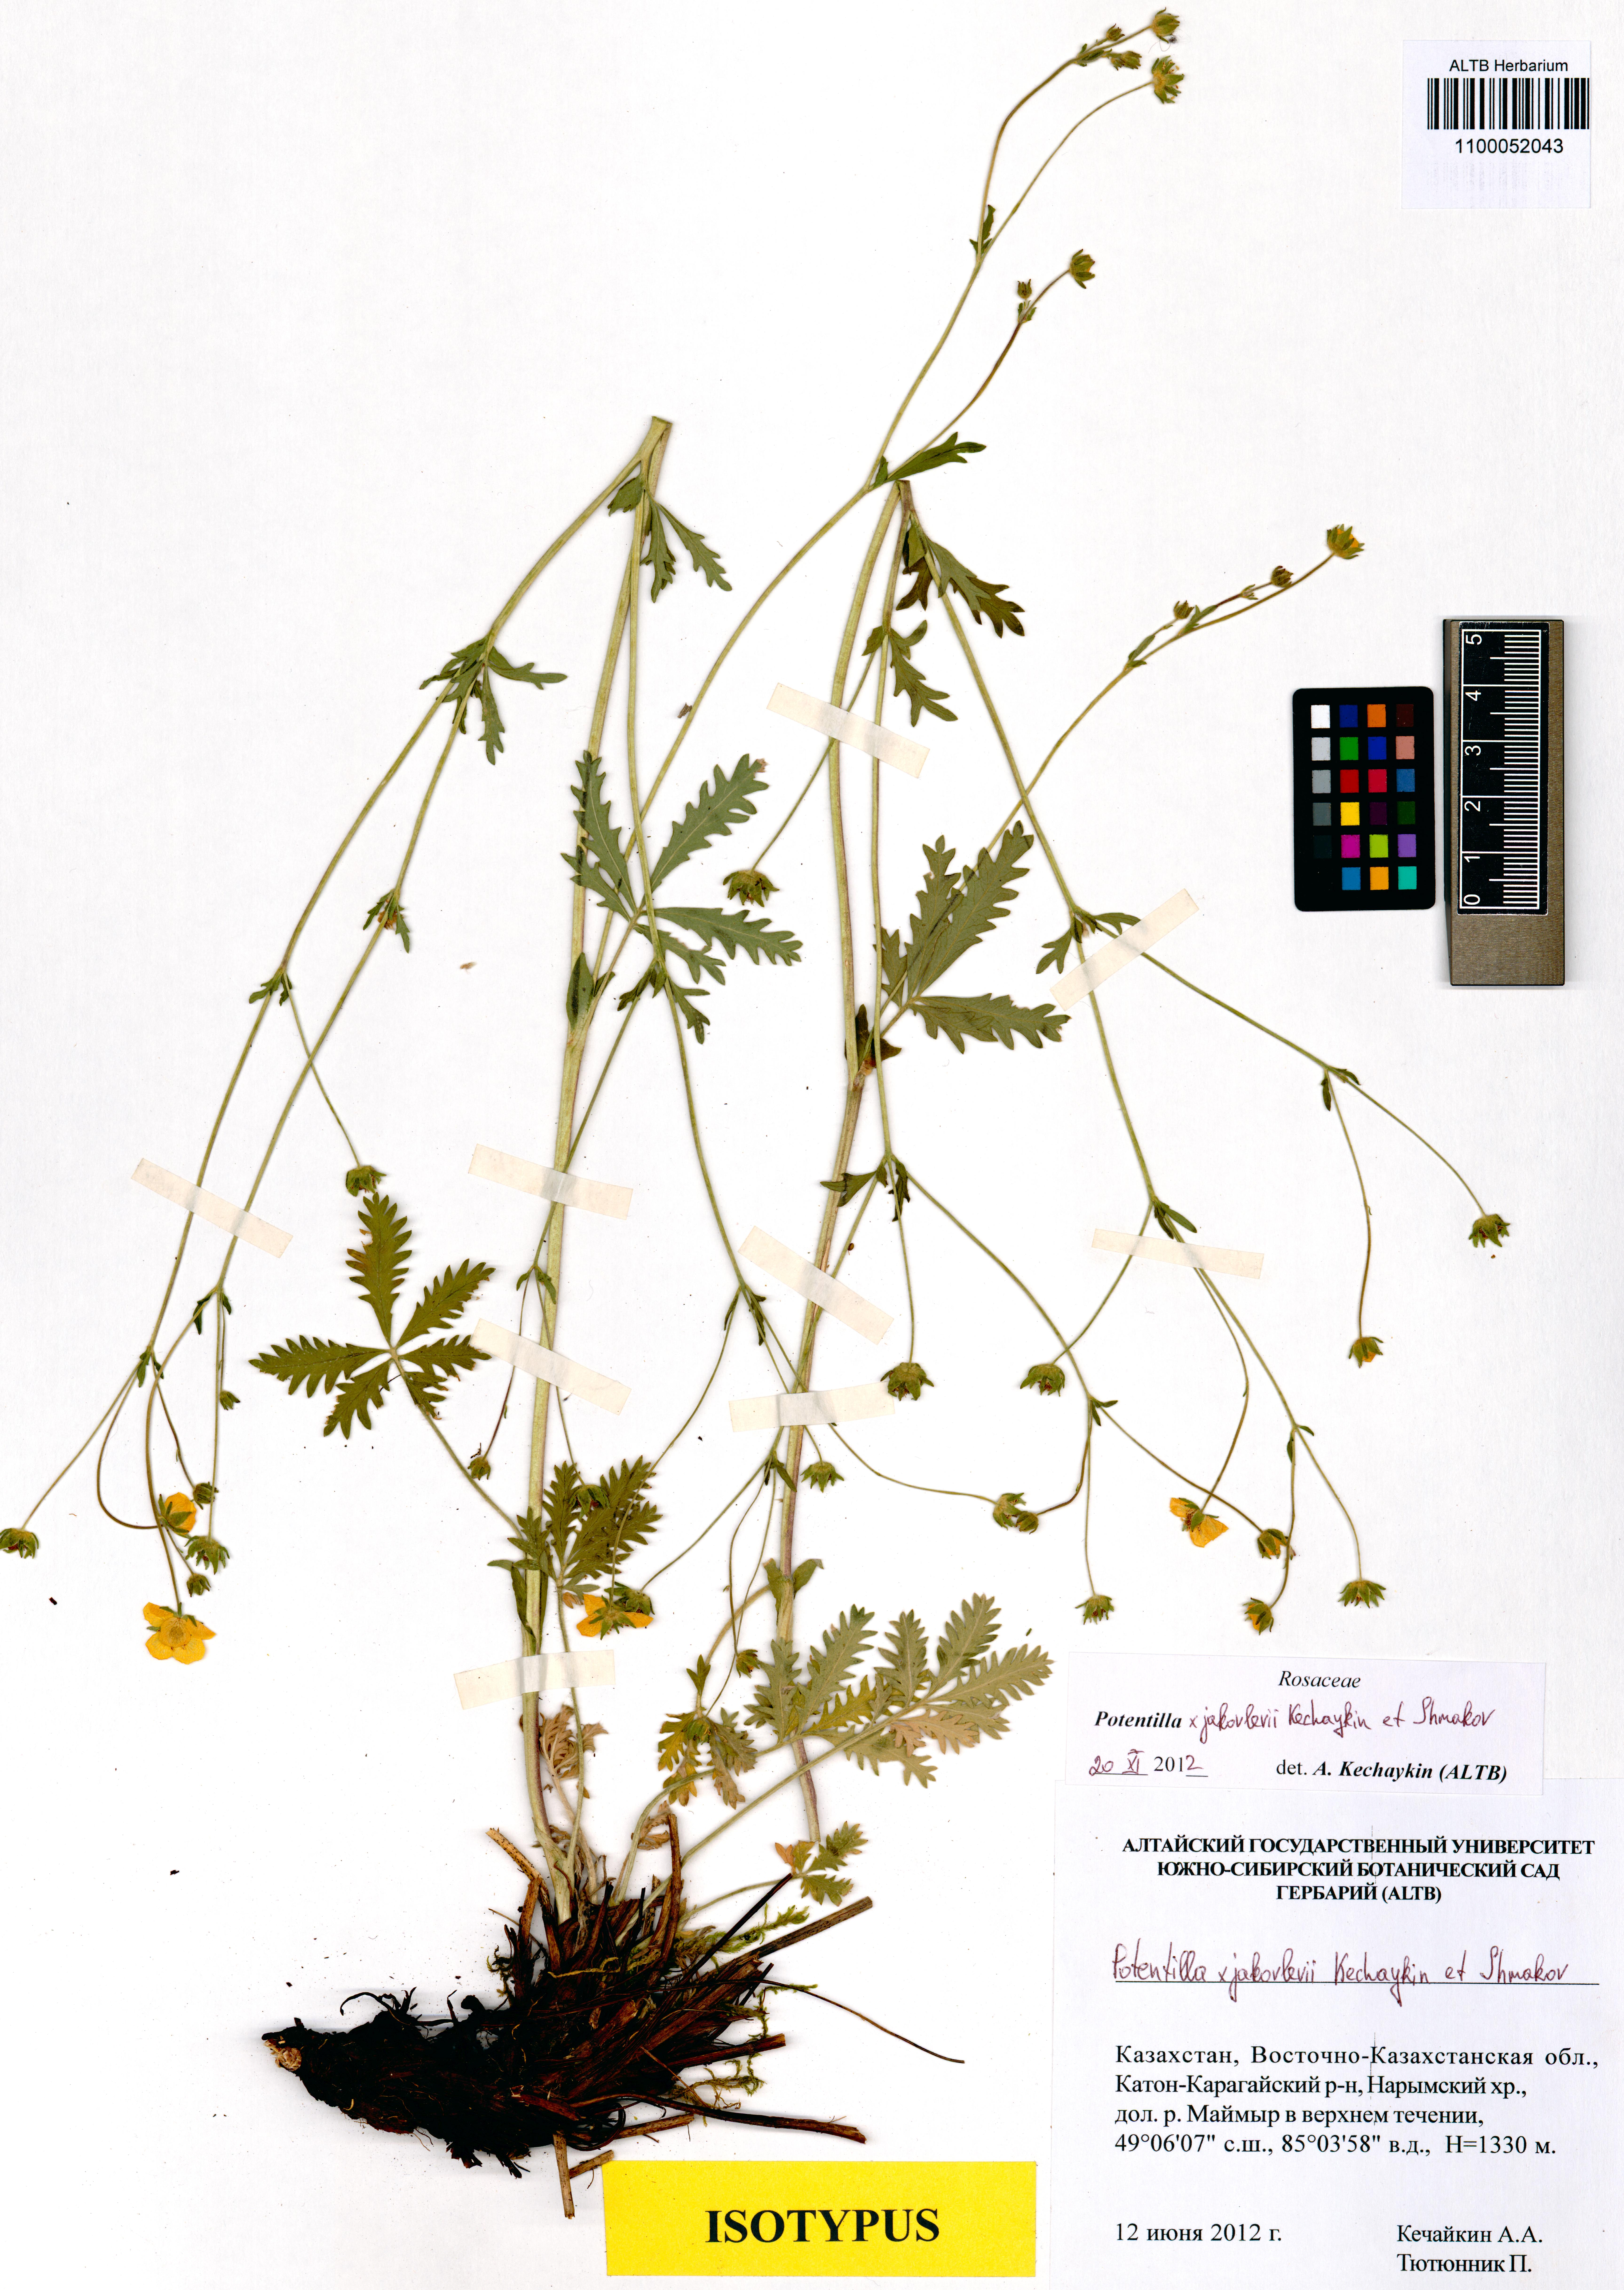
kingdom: Plantae
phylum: Tracheophyta
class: Magnoliopsida
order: Rosales
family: Rosaceae
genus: Potentilla
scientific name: Potentilla jakovlevii
